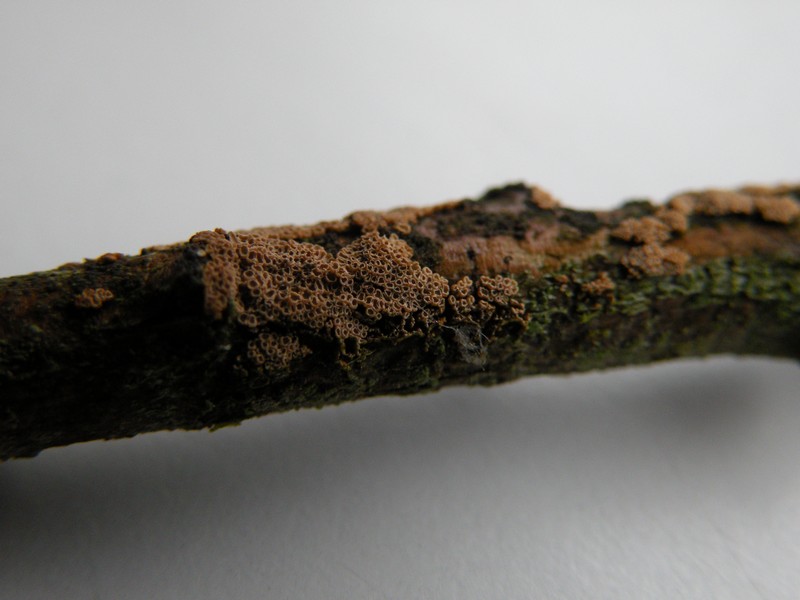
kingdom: Fungi
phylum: Basidiomycota
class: Agaricomycetes
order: Agaricales
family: Niaceae
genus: Merismodes
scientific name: Merismodes anomala
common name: almindelig læderskål
